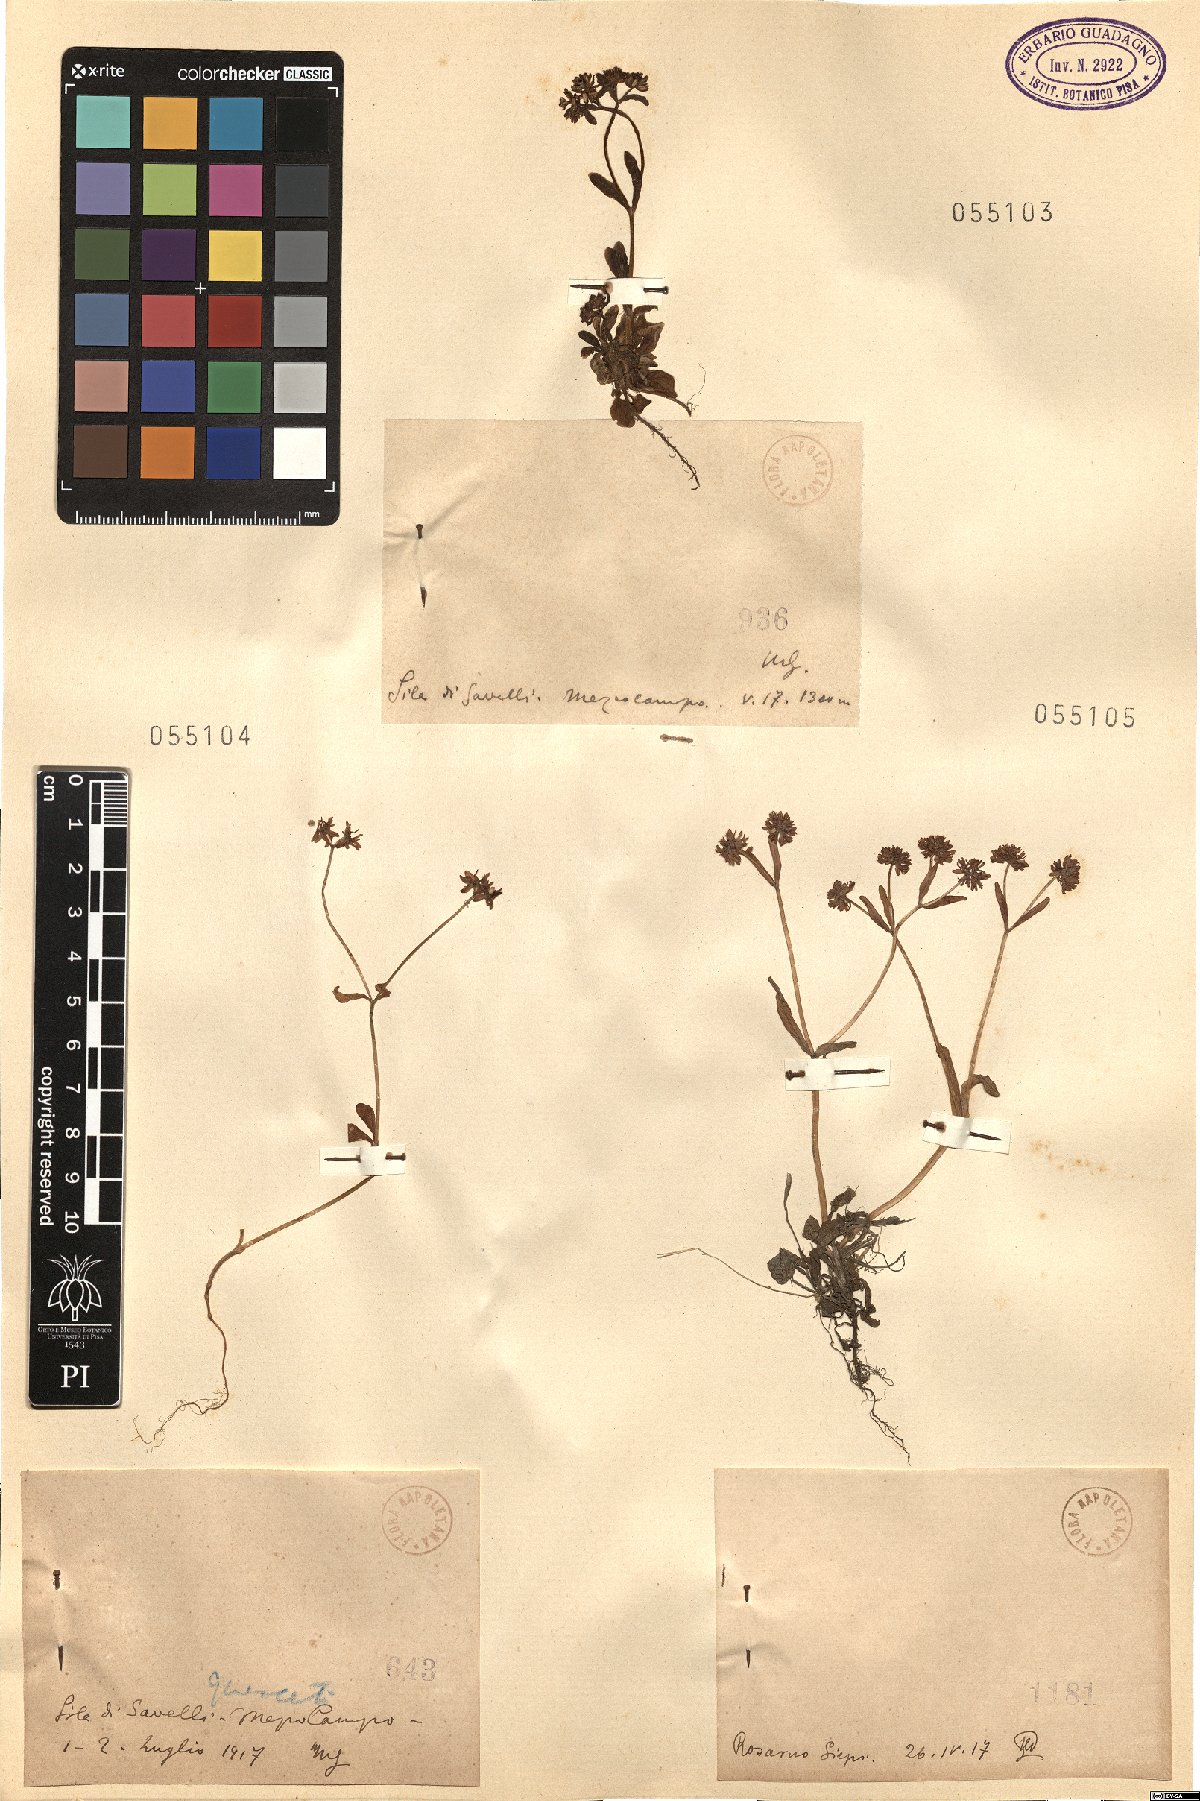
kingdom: Plantae
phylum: Tracheophyta
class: Magnoliopsida
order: Dipsacales
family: Caprifoliaceae
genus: Valerianella
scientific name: Valerianella
